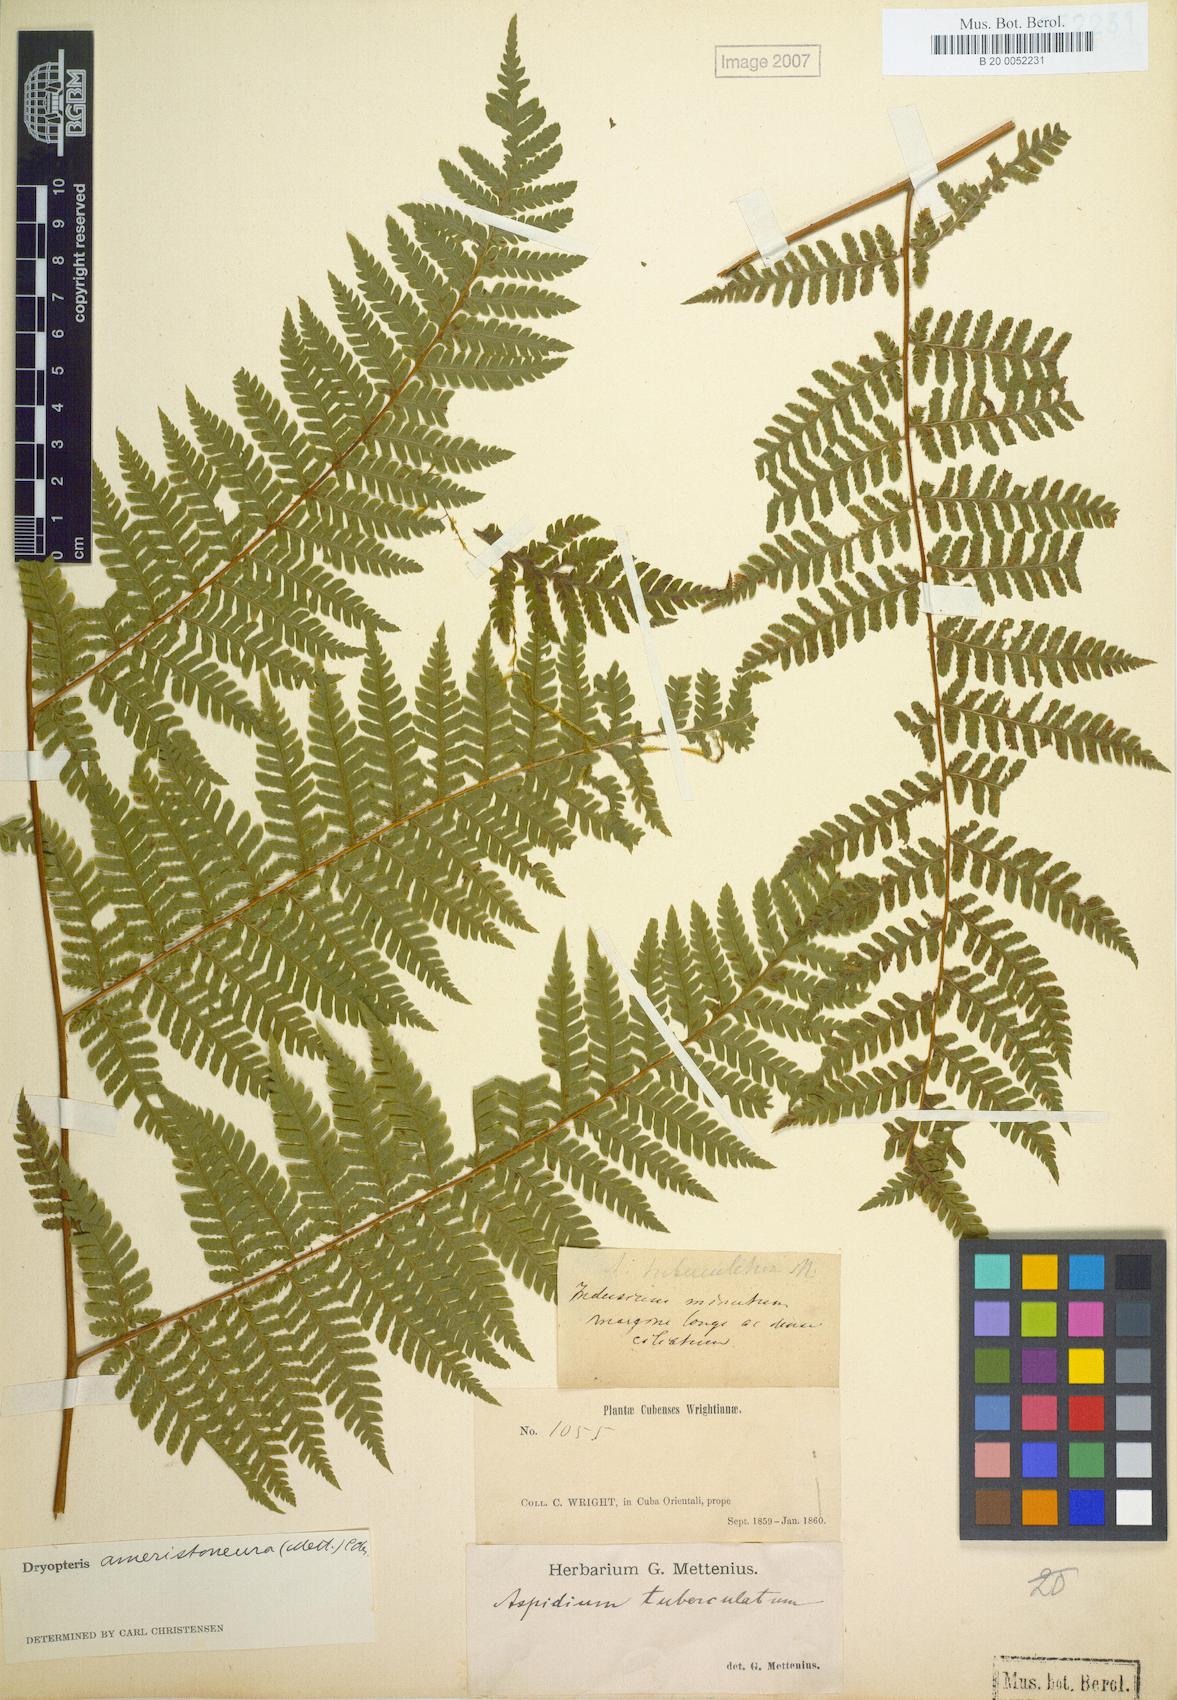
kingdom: Plantae
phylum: Tracheophyta
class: Polypodiopsida
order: Polypodiales
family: Dryopteridaceae
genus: Ctenitis
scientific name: Ctenitis grisebachii
